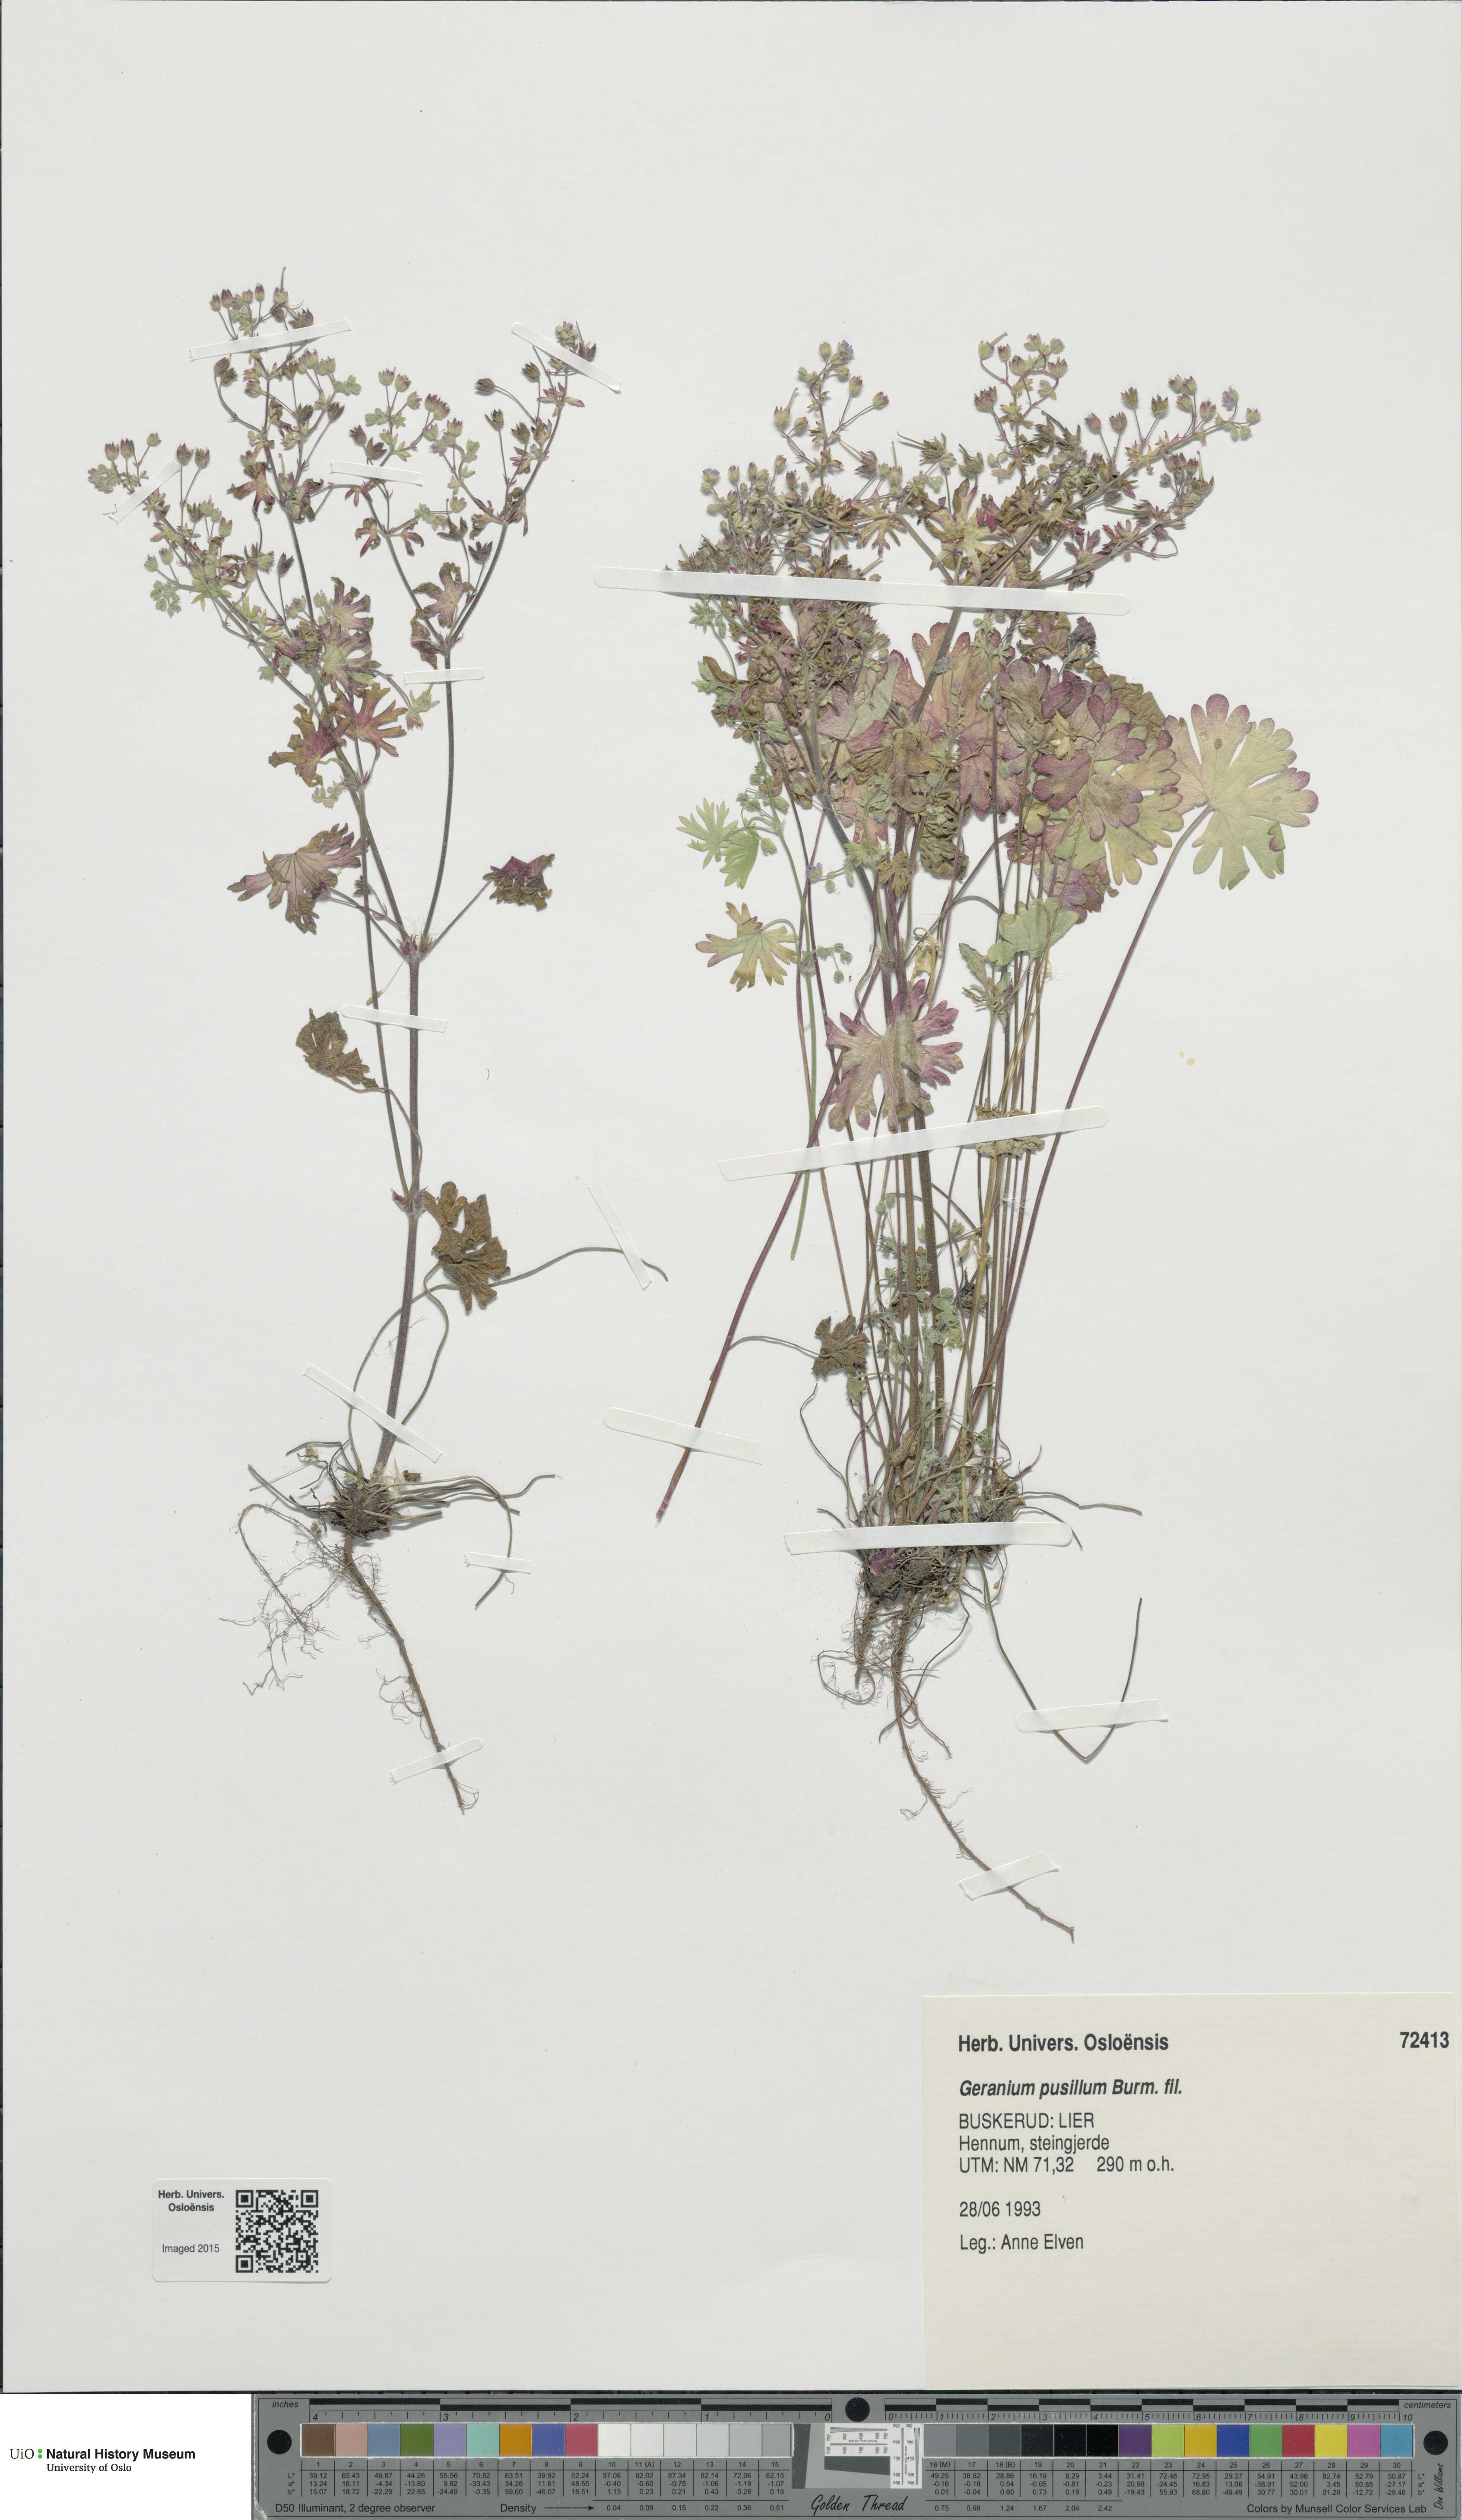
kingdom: Plantae
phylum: Tracheophyta
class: Magnoliopsida
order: Geraniales
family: Geraniaceae
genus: Geranium
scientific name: Geranium pusillum
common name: Small geranium
